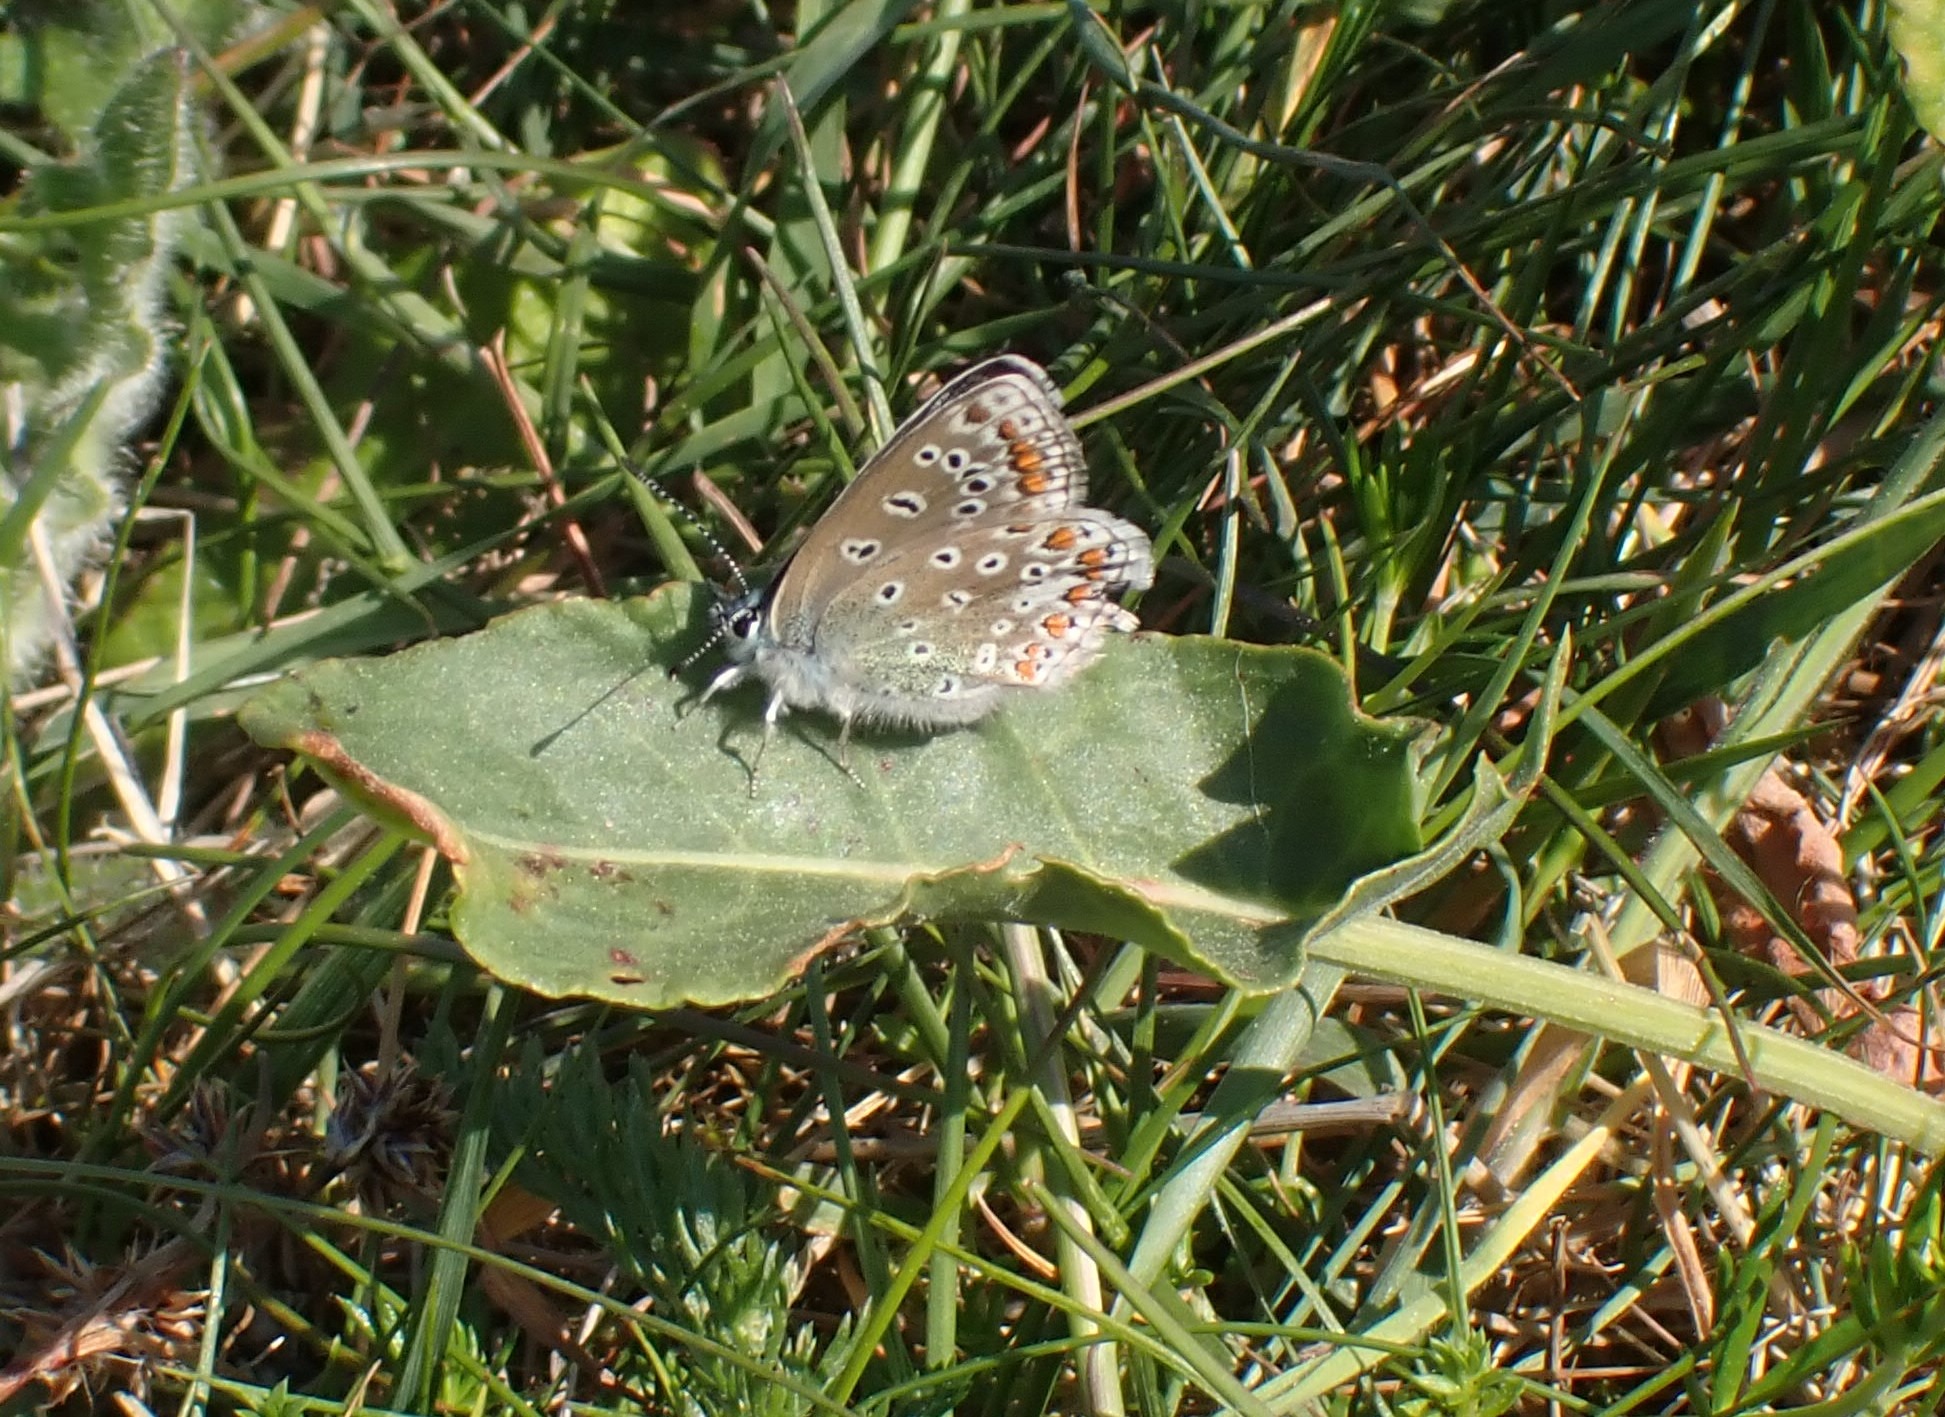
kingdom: Animalia
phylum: Arthropoda
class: Insecta
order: Lepidoptera
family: Lycaenidae
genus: Polyommatus
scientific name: Polyommatus icarus
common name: Almindelig blåfugl
